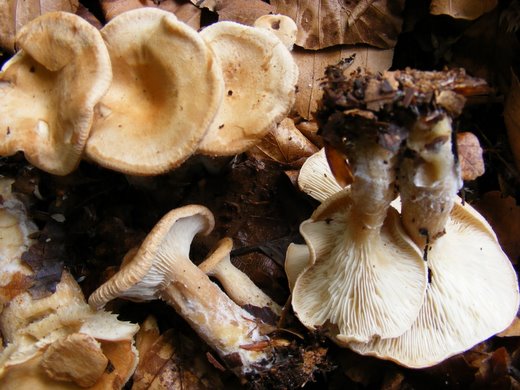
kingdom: Fungi
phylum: Basidiomycota
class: Agaricomycetes
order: Agaricales
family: Tricholomataceae
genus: Clitocybe
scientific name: Clitocybe costata
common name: brunstokket tragthat
